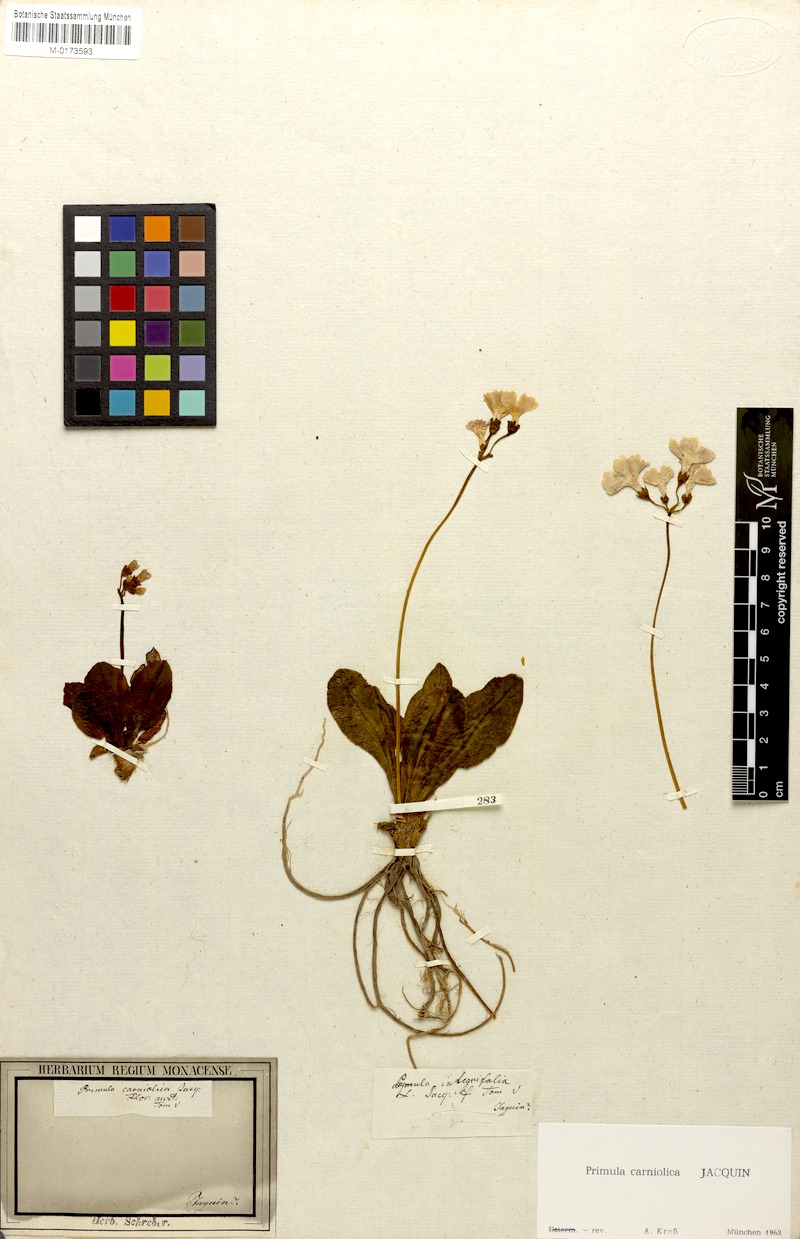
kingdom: Plantae
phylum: Tracheophyta
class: Magnoliopsida
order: Ericales
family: Primulaceae
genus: Primula
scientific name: Primula carniolica
